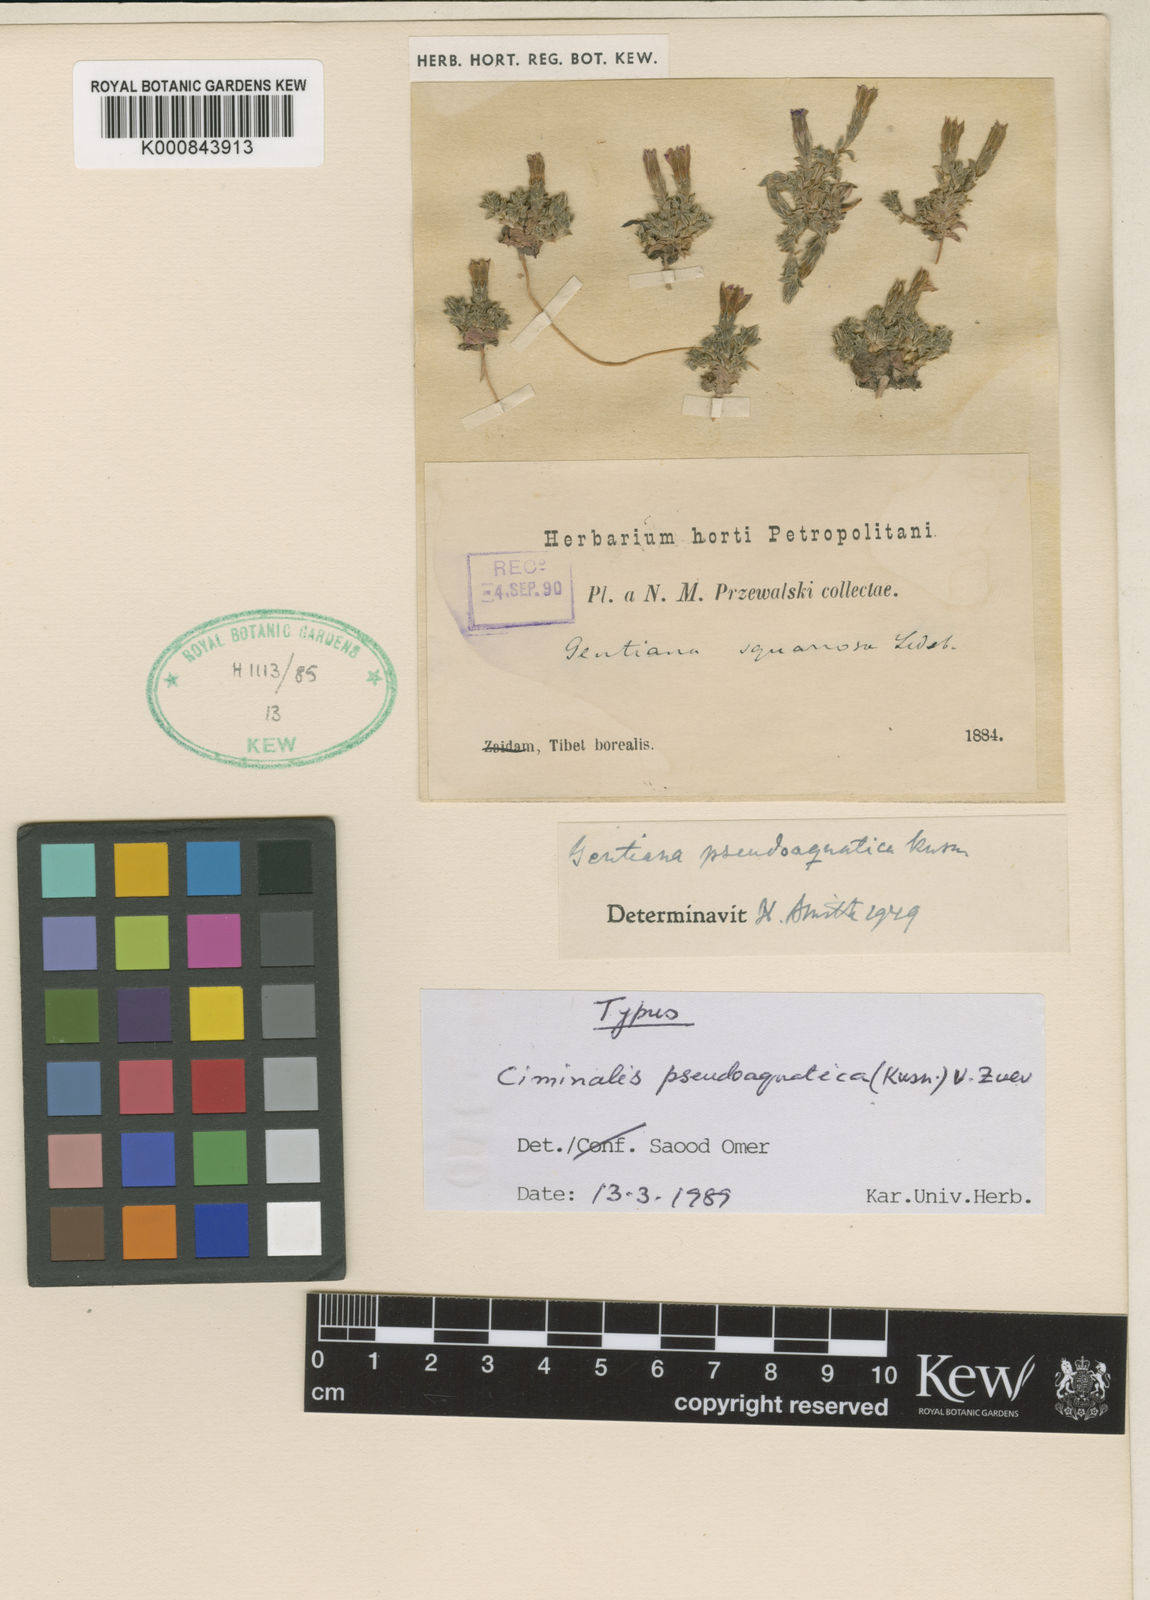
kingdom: Plantae
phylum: Tracheophyta
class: Magnoliopsida
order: Gentianales
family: Gentianaceae
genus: Gentiana
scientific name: Gentiana aquatica
